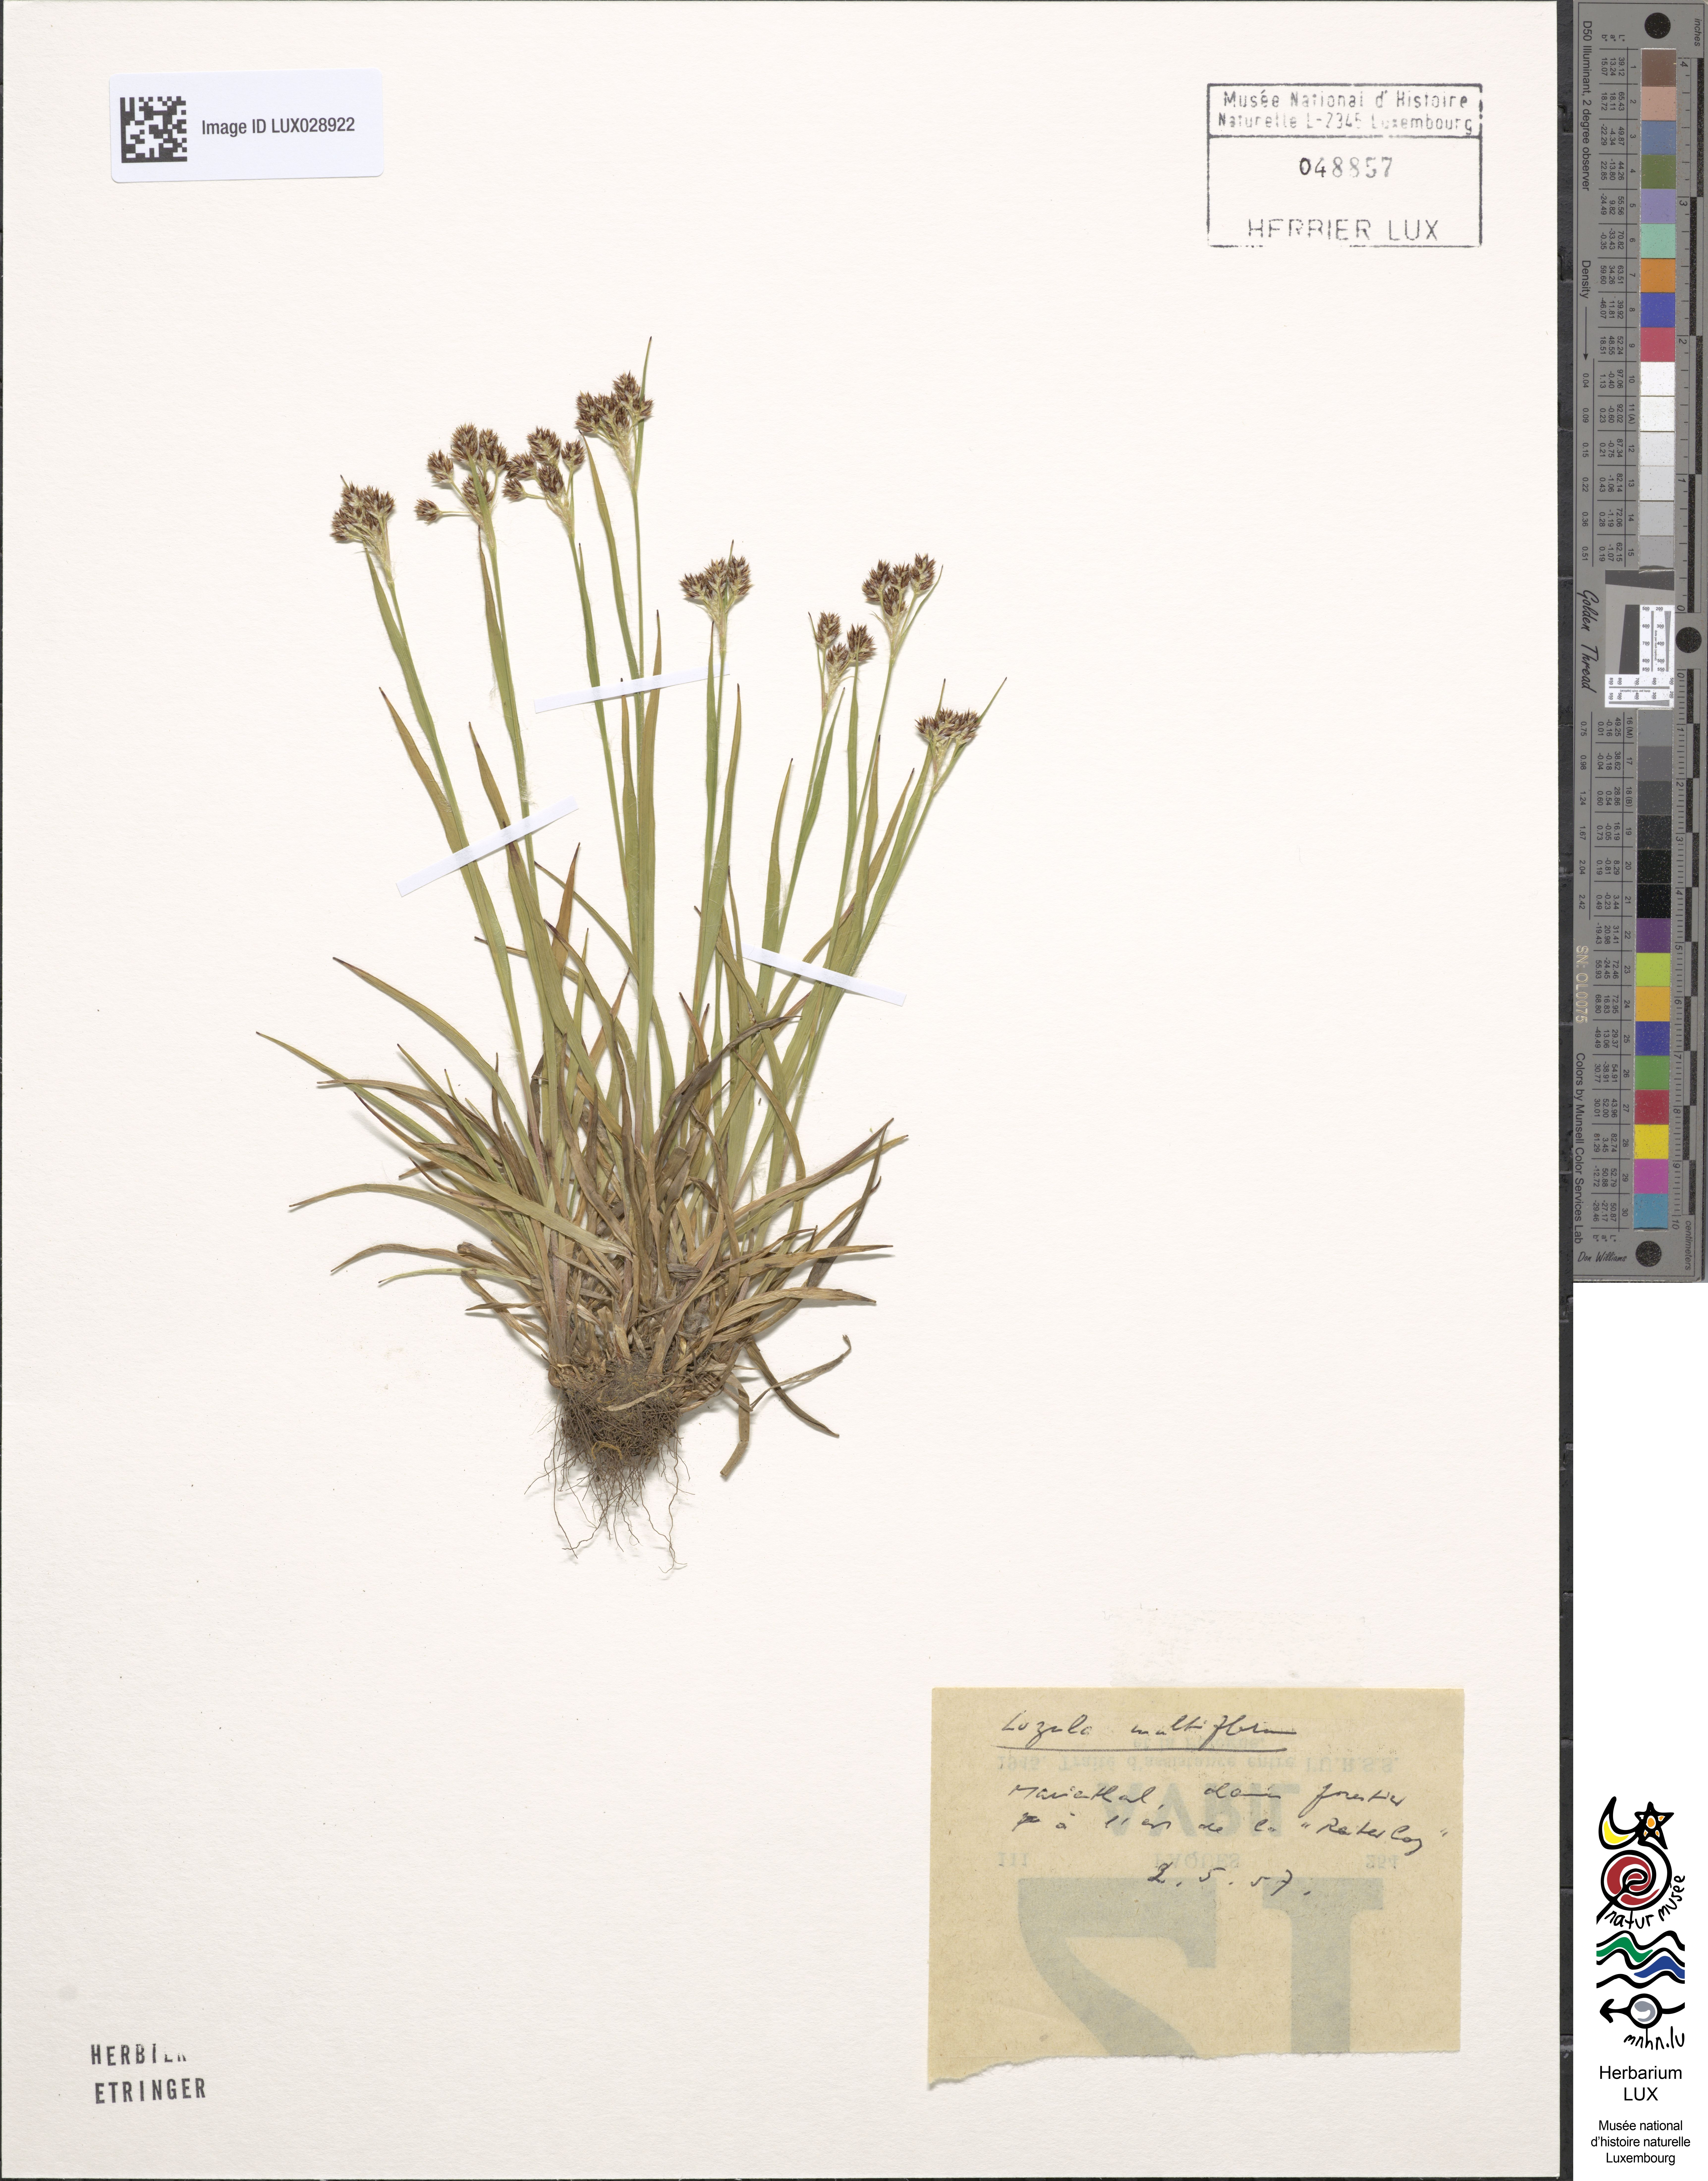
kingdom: Plantae
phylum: Tracheophyta
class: Liliopsida
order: Poales
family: Juncaceae
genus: Luzula
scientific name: Luzula multiflora
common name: Heath wood-rush
